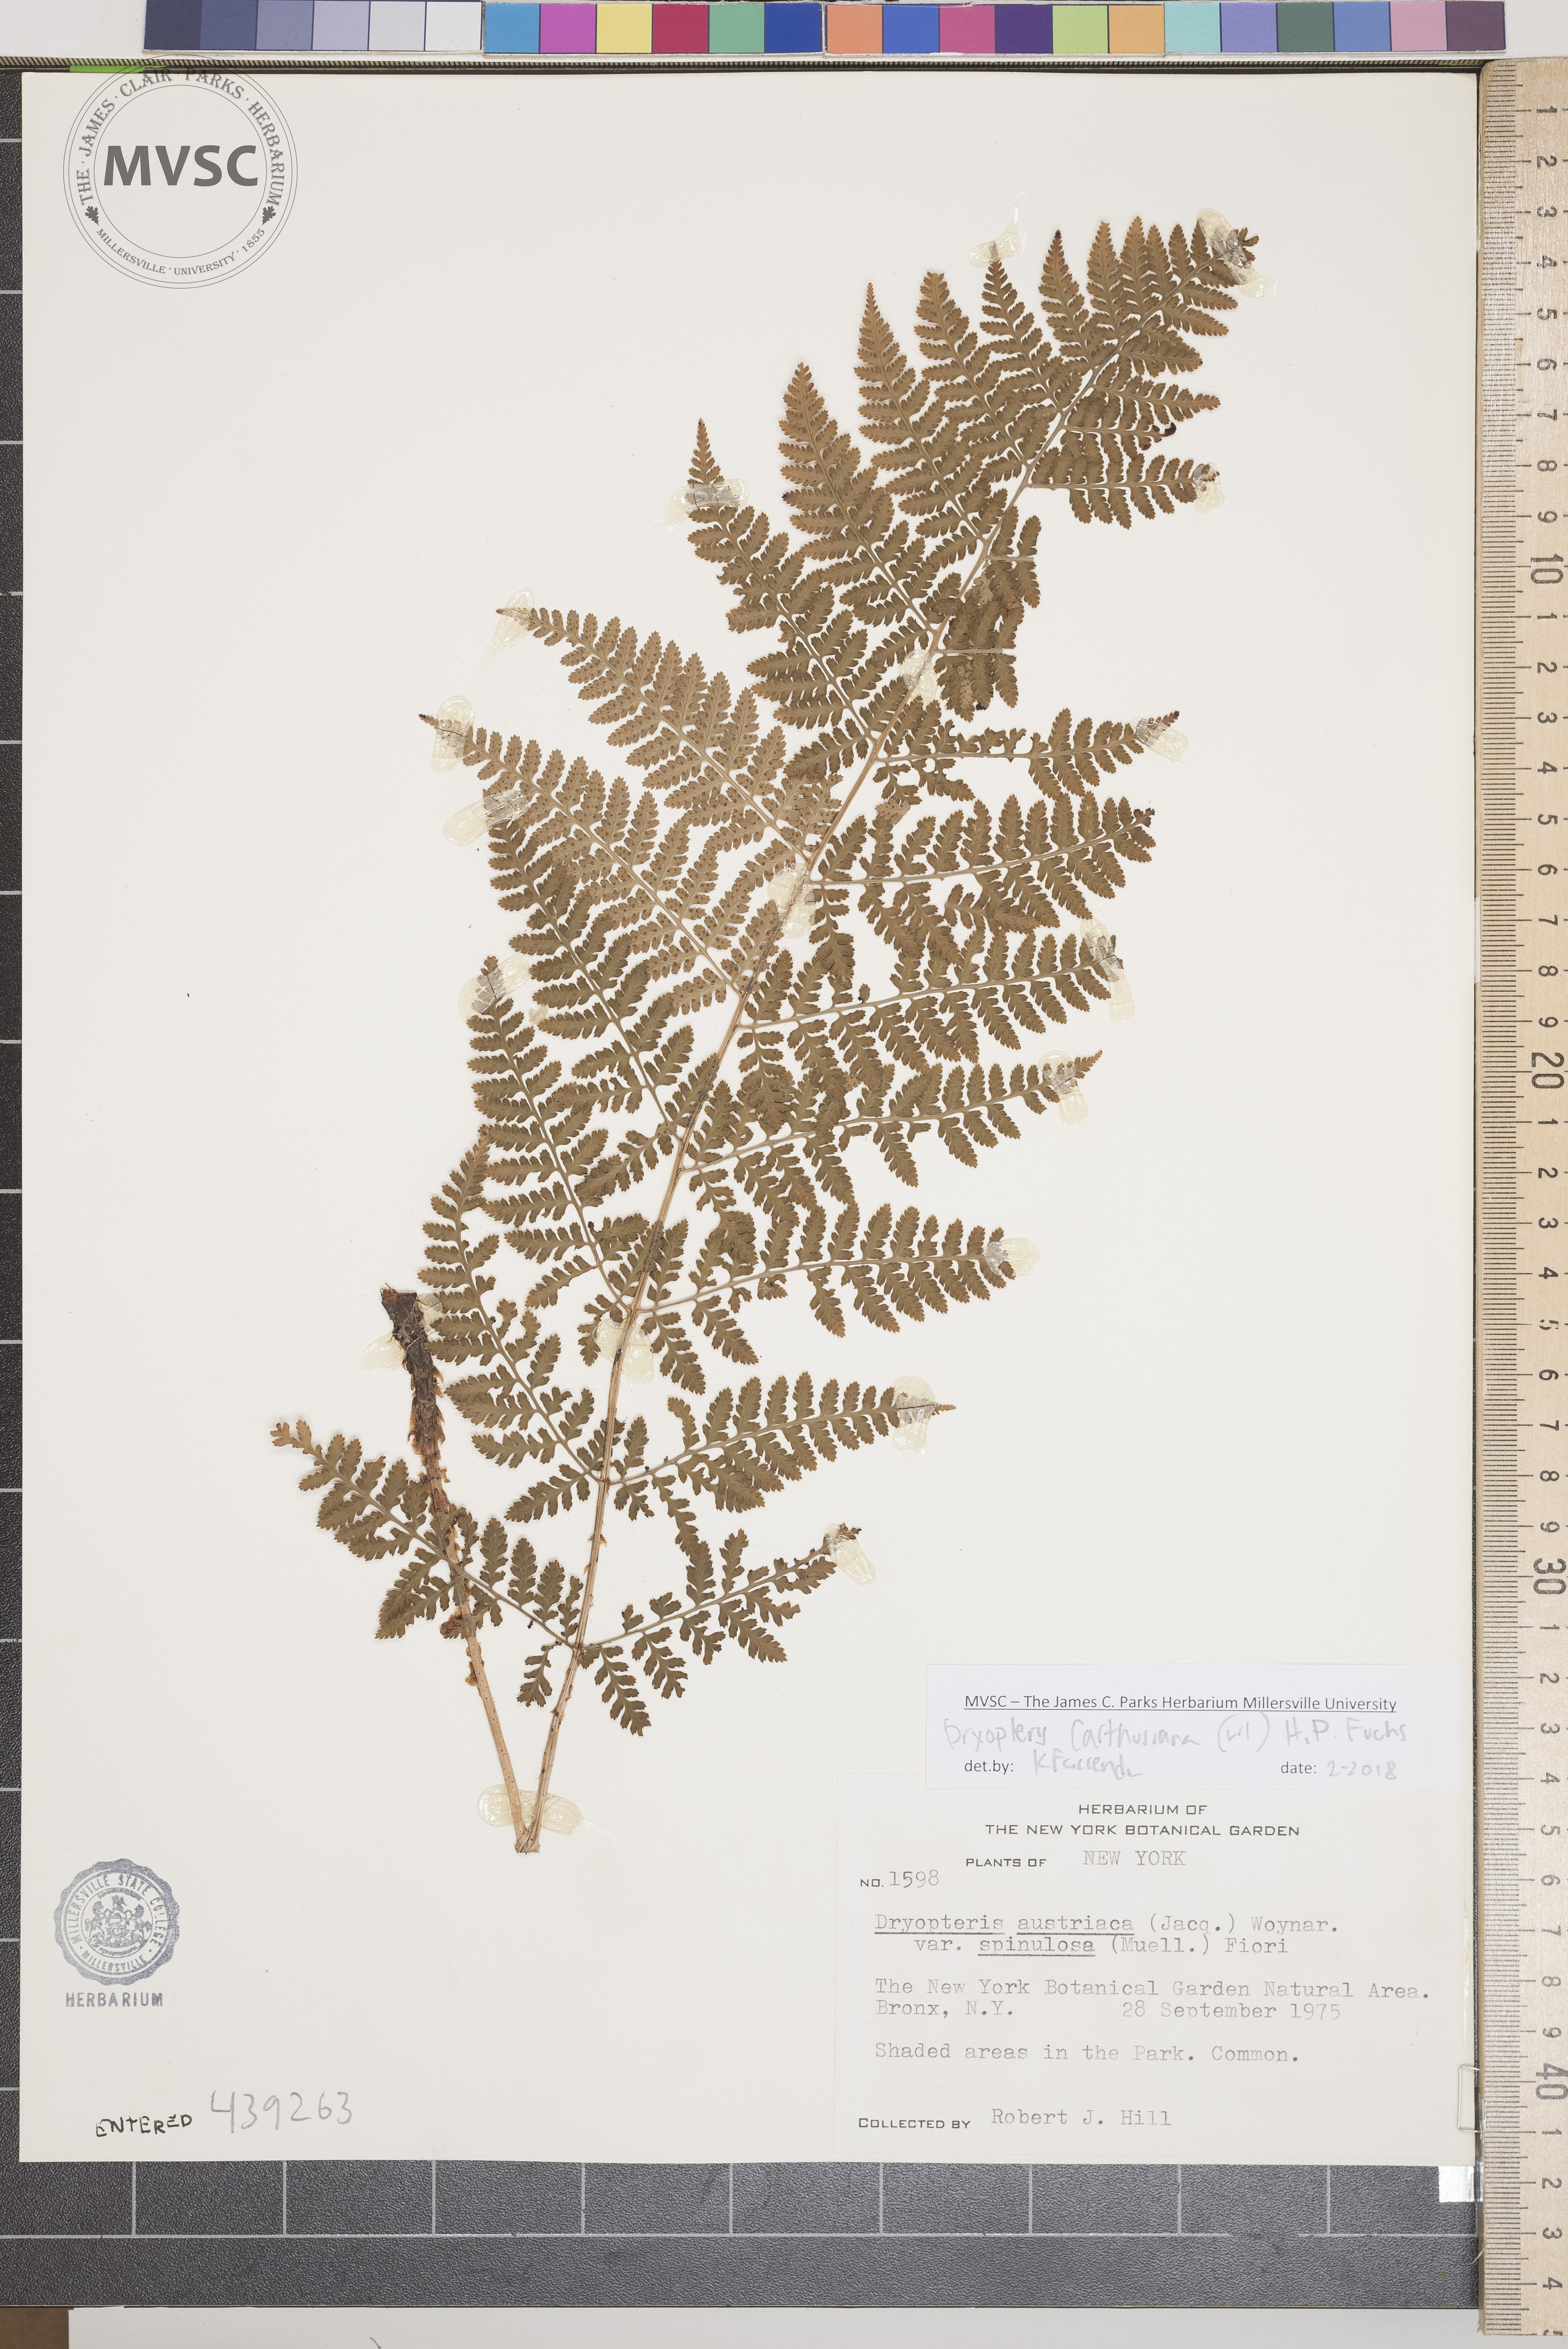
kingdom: Plantae
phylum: Tracheophyta
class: Polypodiopsida
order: Polypodiales
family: Dryopteridaceae
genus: Dryopteris
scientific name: Dryopteris carthusiana
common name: Wood fern
